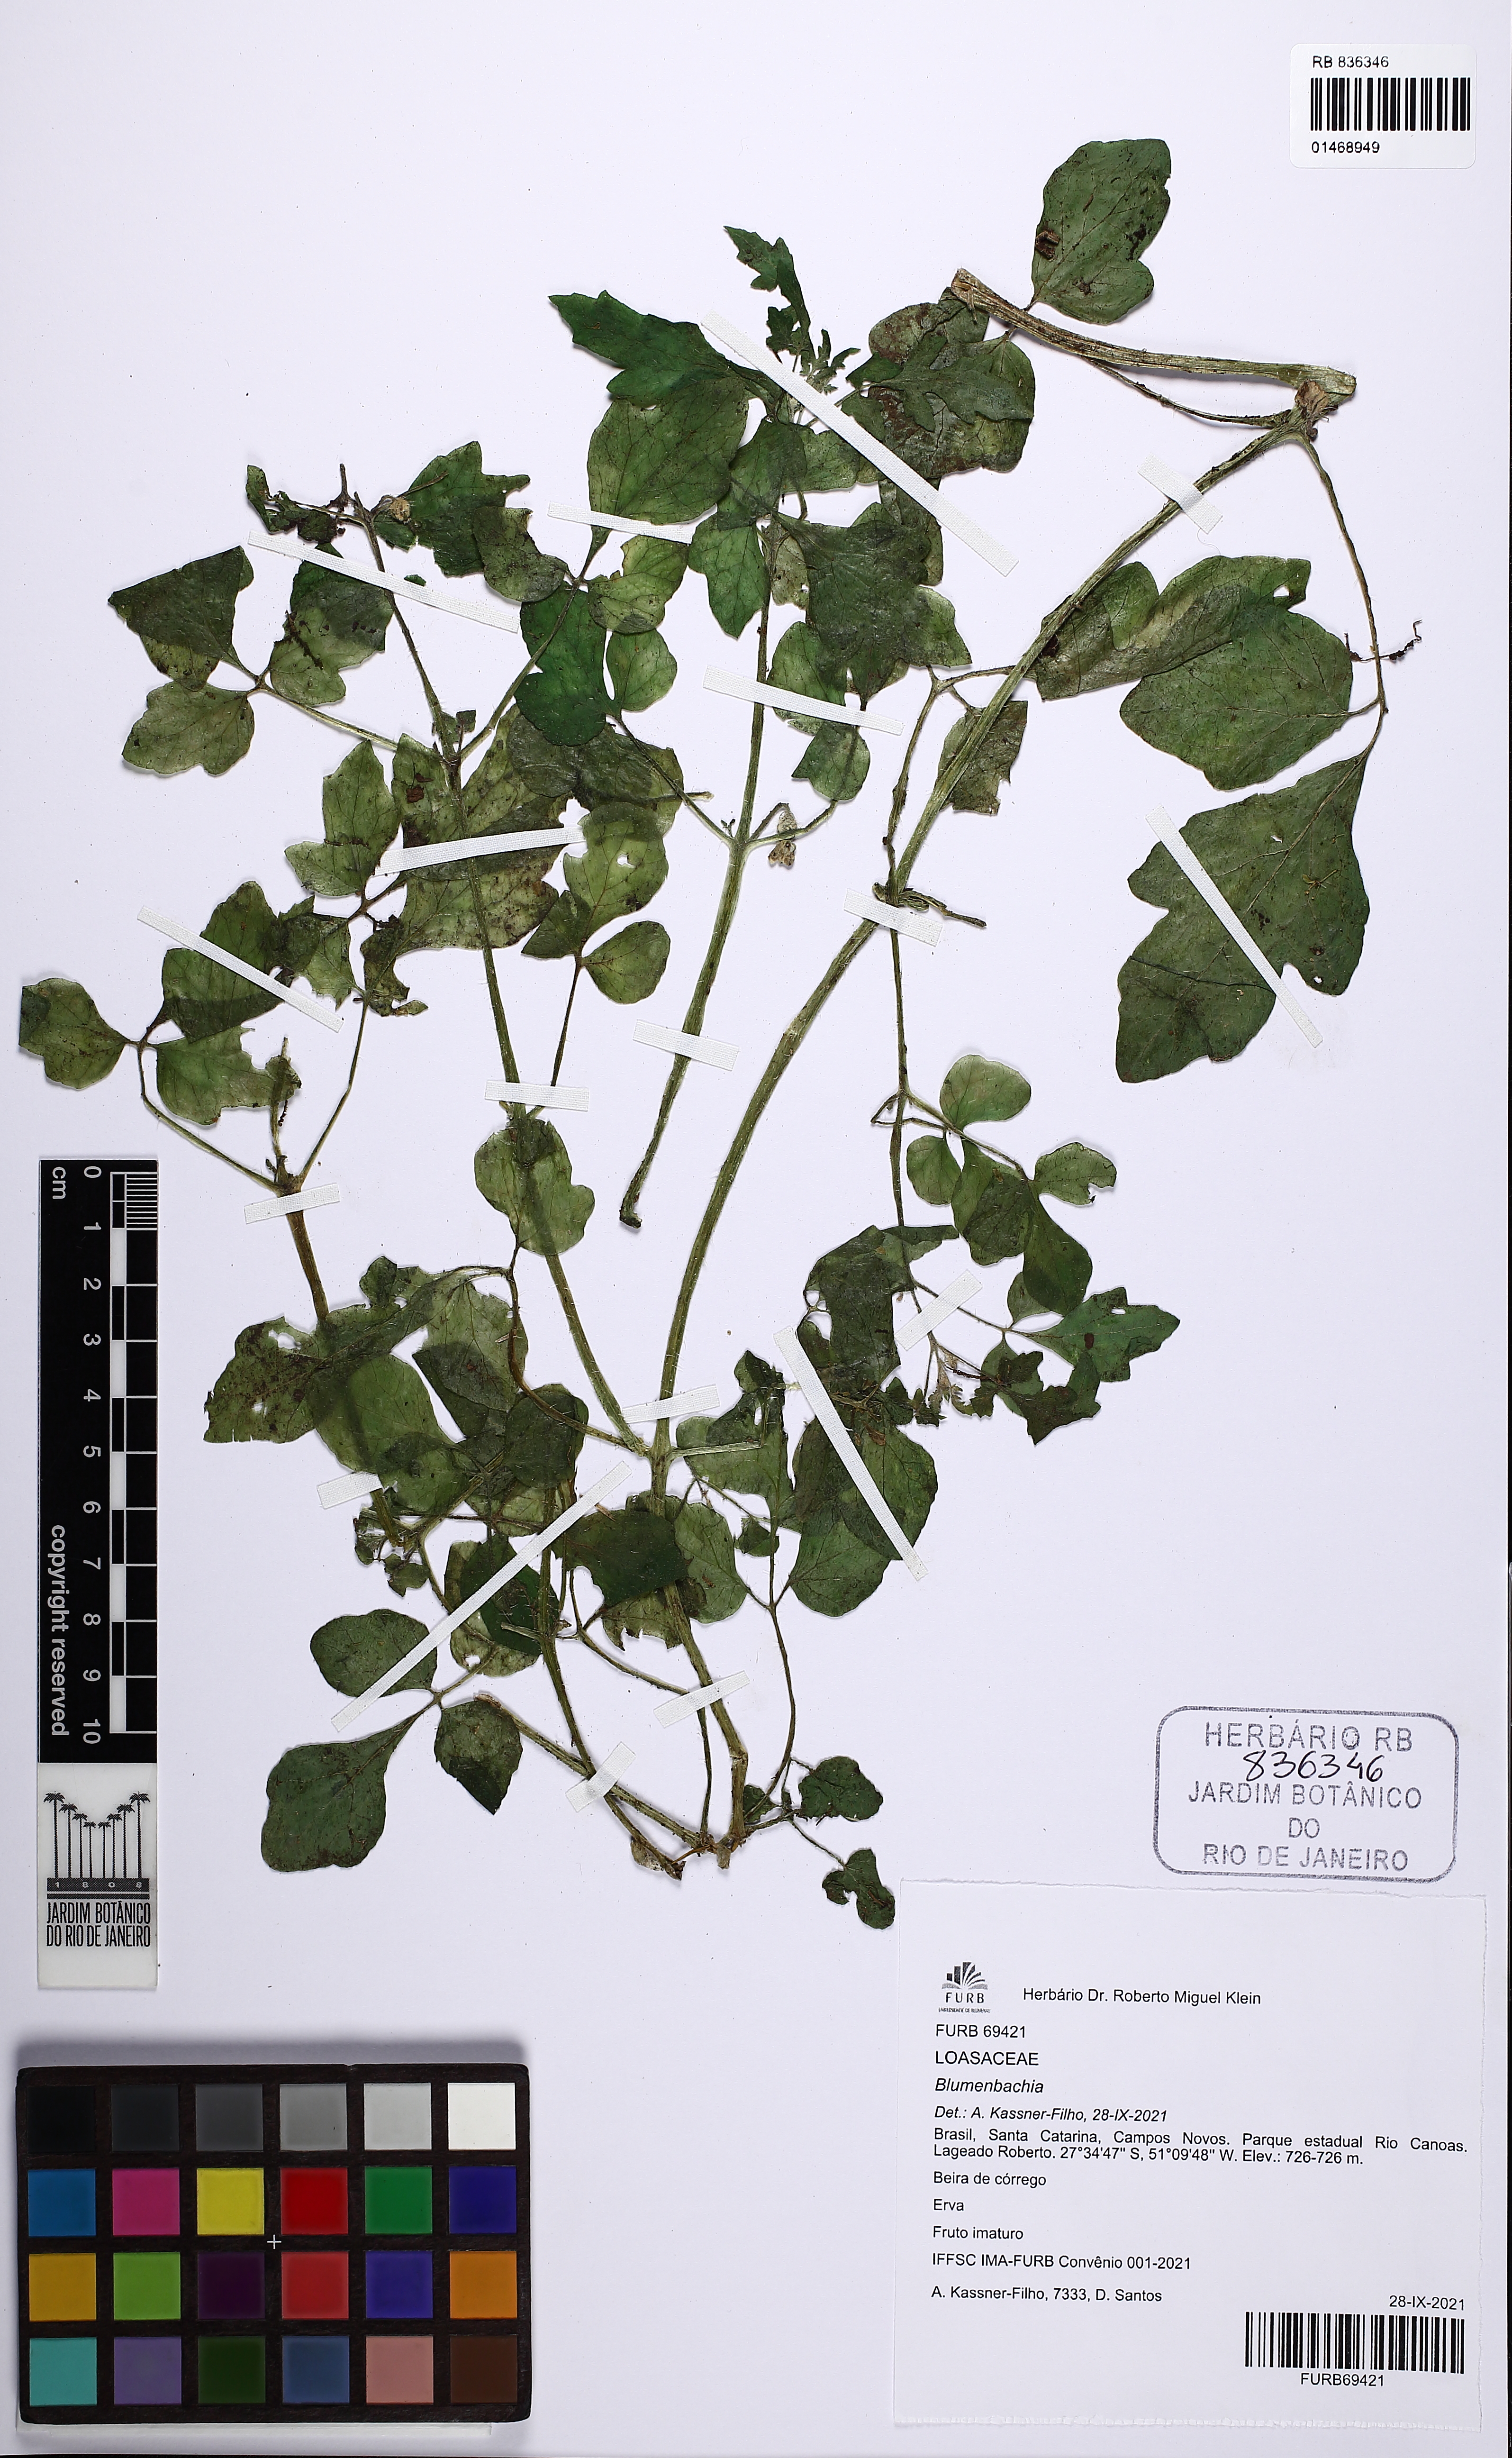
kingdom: Plantae
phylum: Tracheophyta
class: Magnoliopsida
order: Cornales
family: Loasaceae
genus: Blumenbachia
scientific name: Blumenbachia
